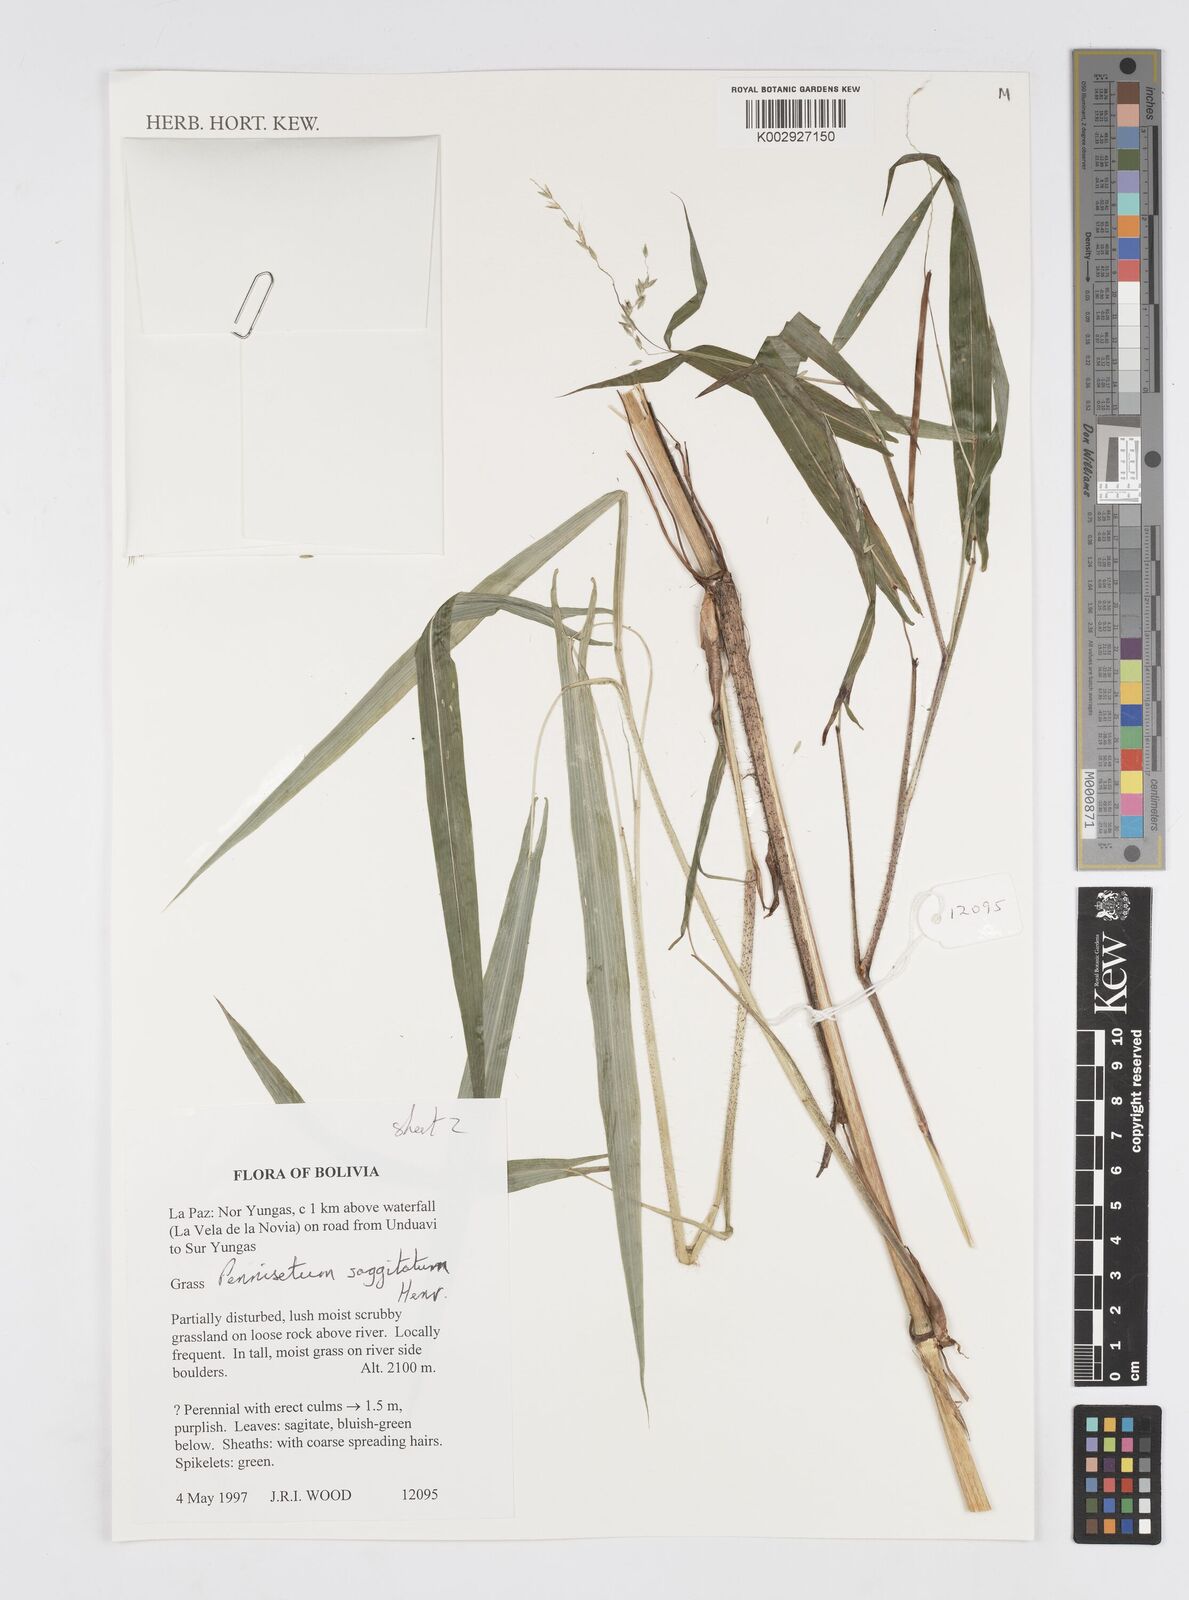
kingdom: Plantae
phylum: Tracheophyta
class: Liliopsida
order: Poales
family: Poaceae
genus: Cenchrus
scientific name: Cenchrus sagittatus
